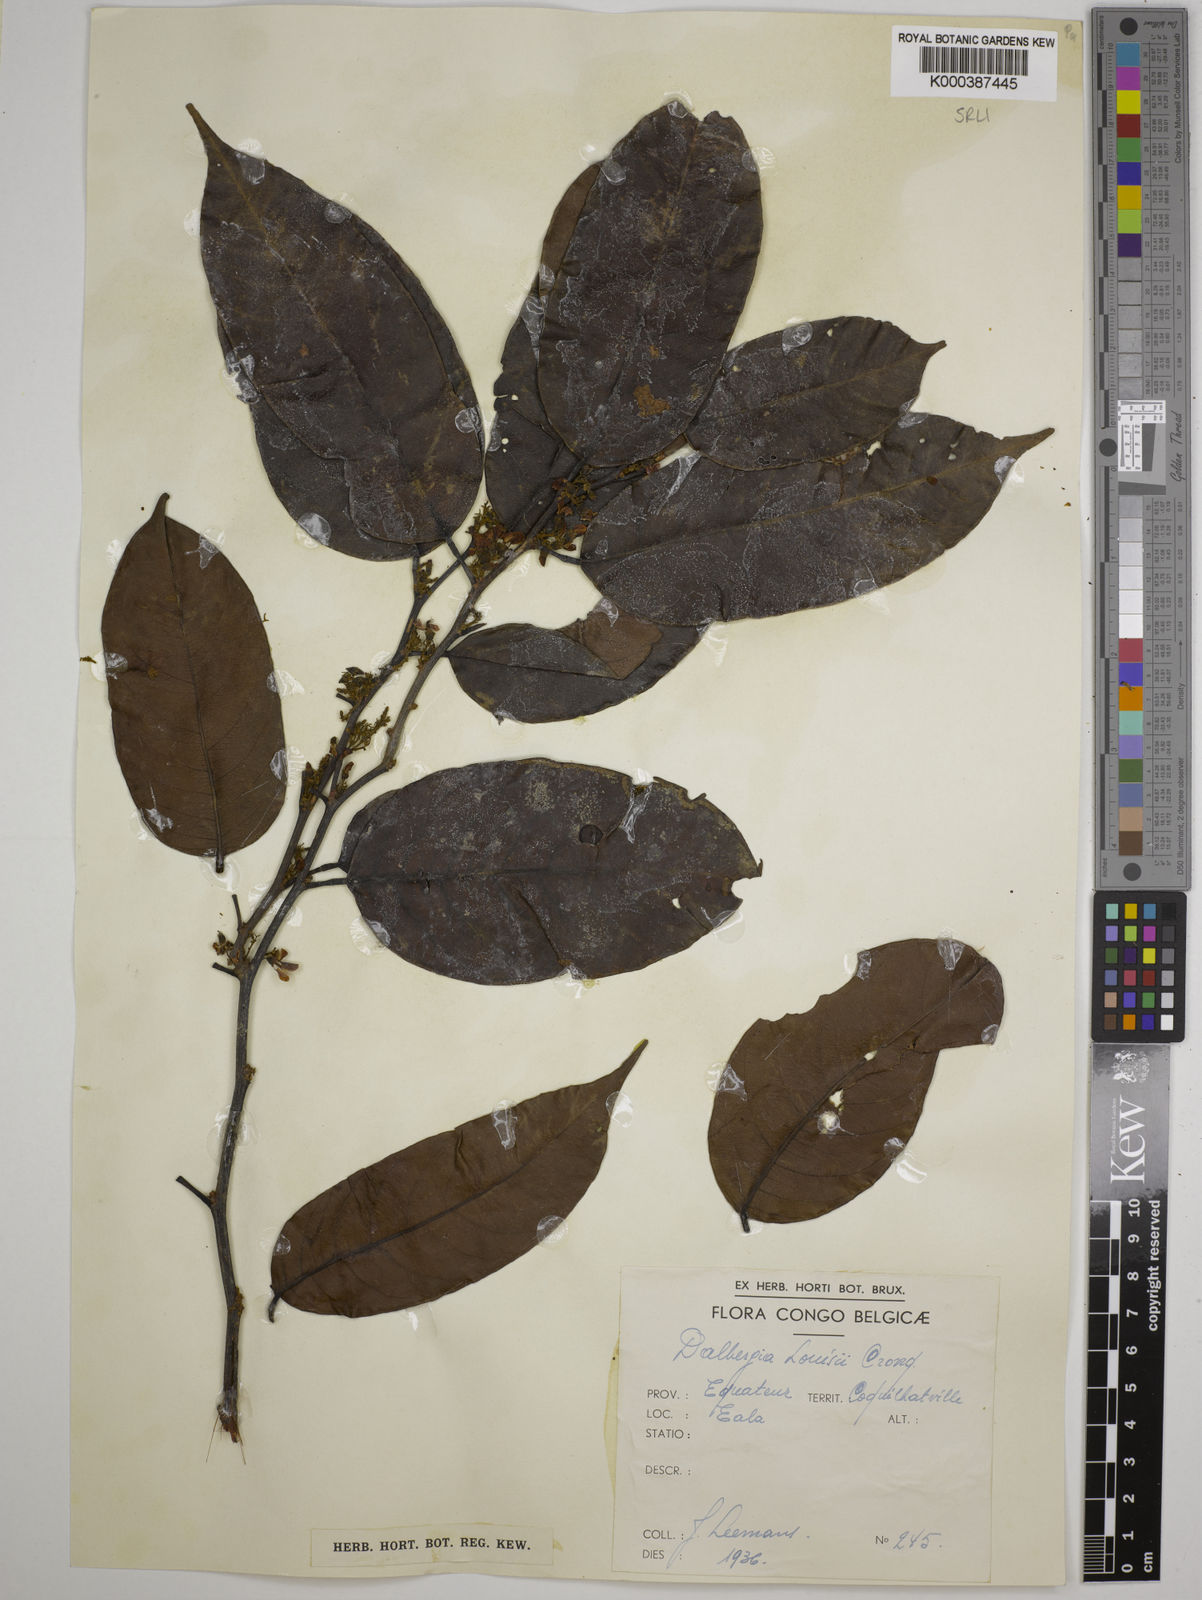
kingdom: Plantae
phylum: Tracheophyta
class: Magnoliopsida
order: Fabales
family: Fabaceae
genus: Dalbergia
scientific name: Dalbergia louisii
